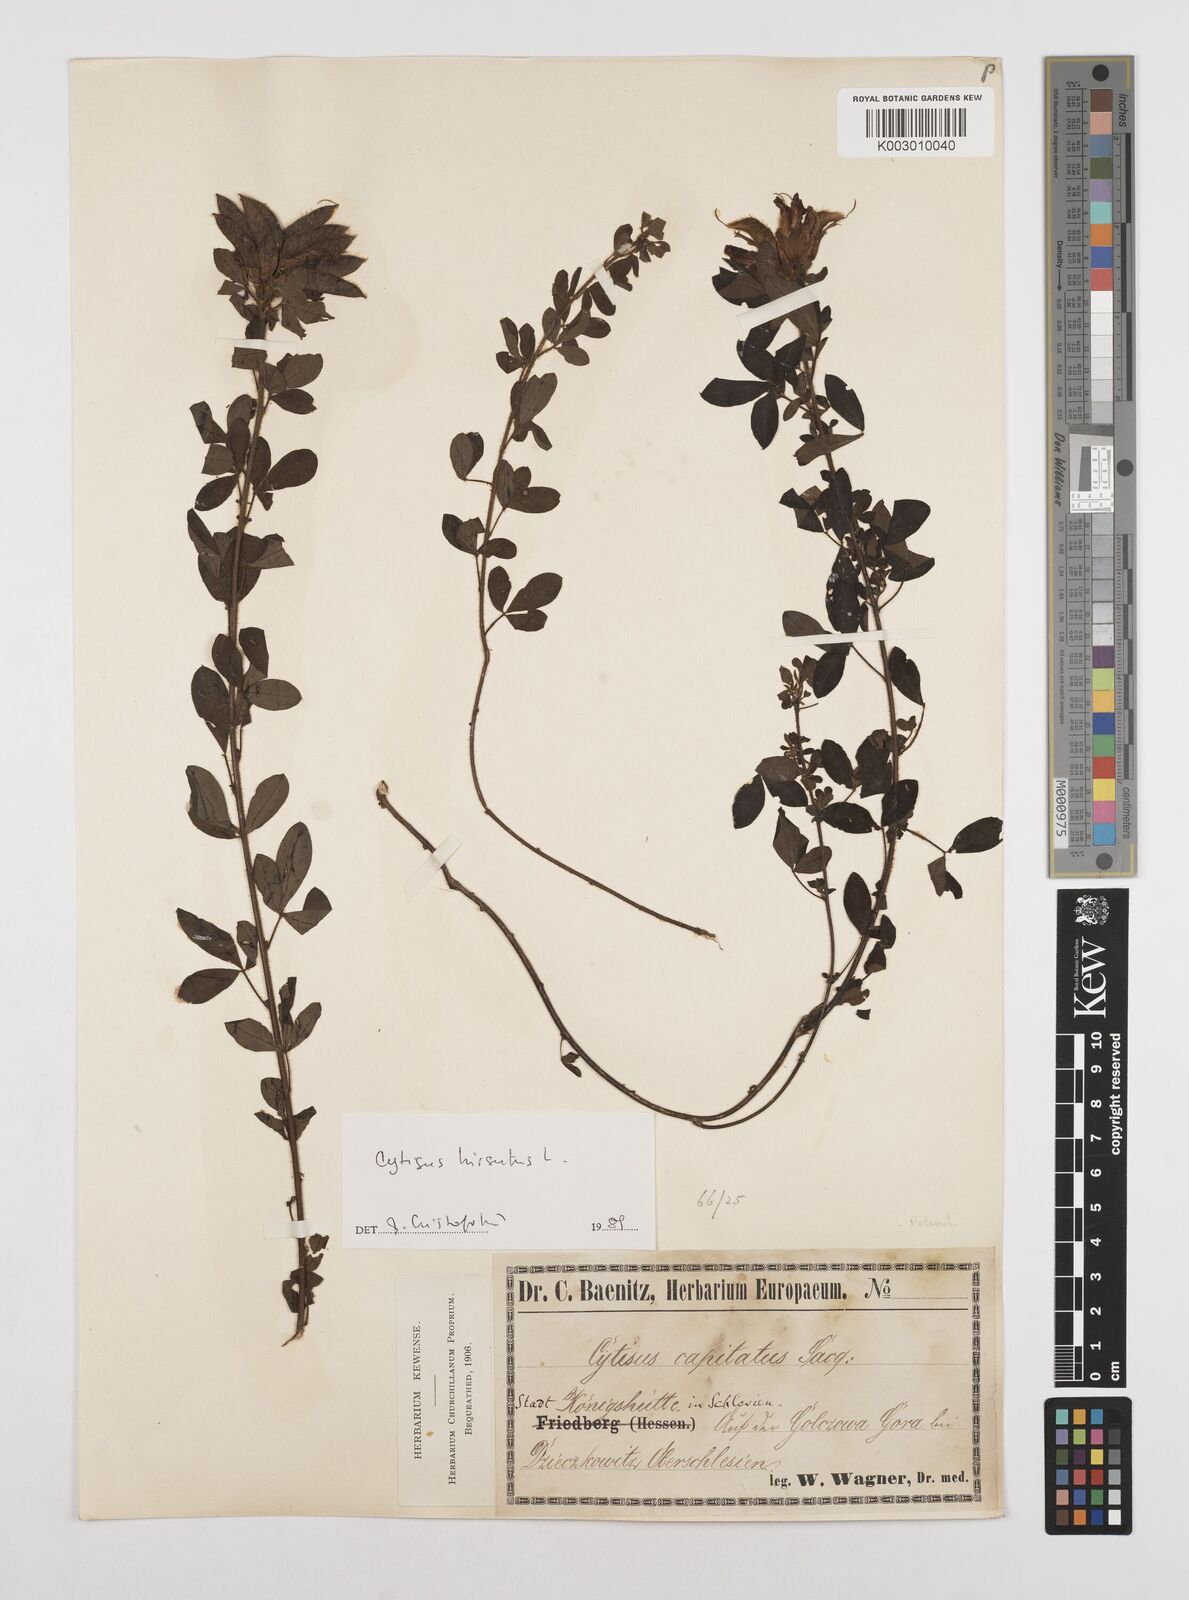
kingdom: Plantae
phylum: Tracheophyta
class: Magnoliopsida
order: Fabales
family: Fabaceae
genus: Chamaecytisus
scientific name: Chamaecytisus hirsutus
